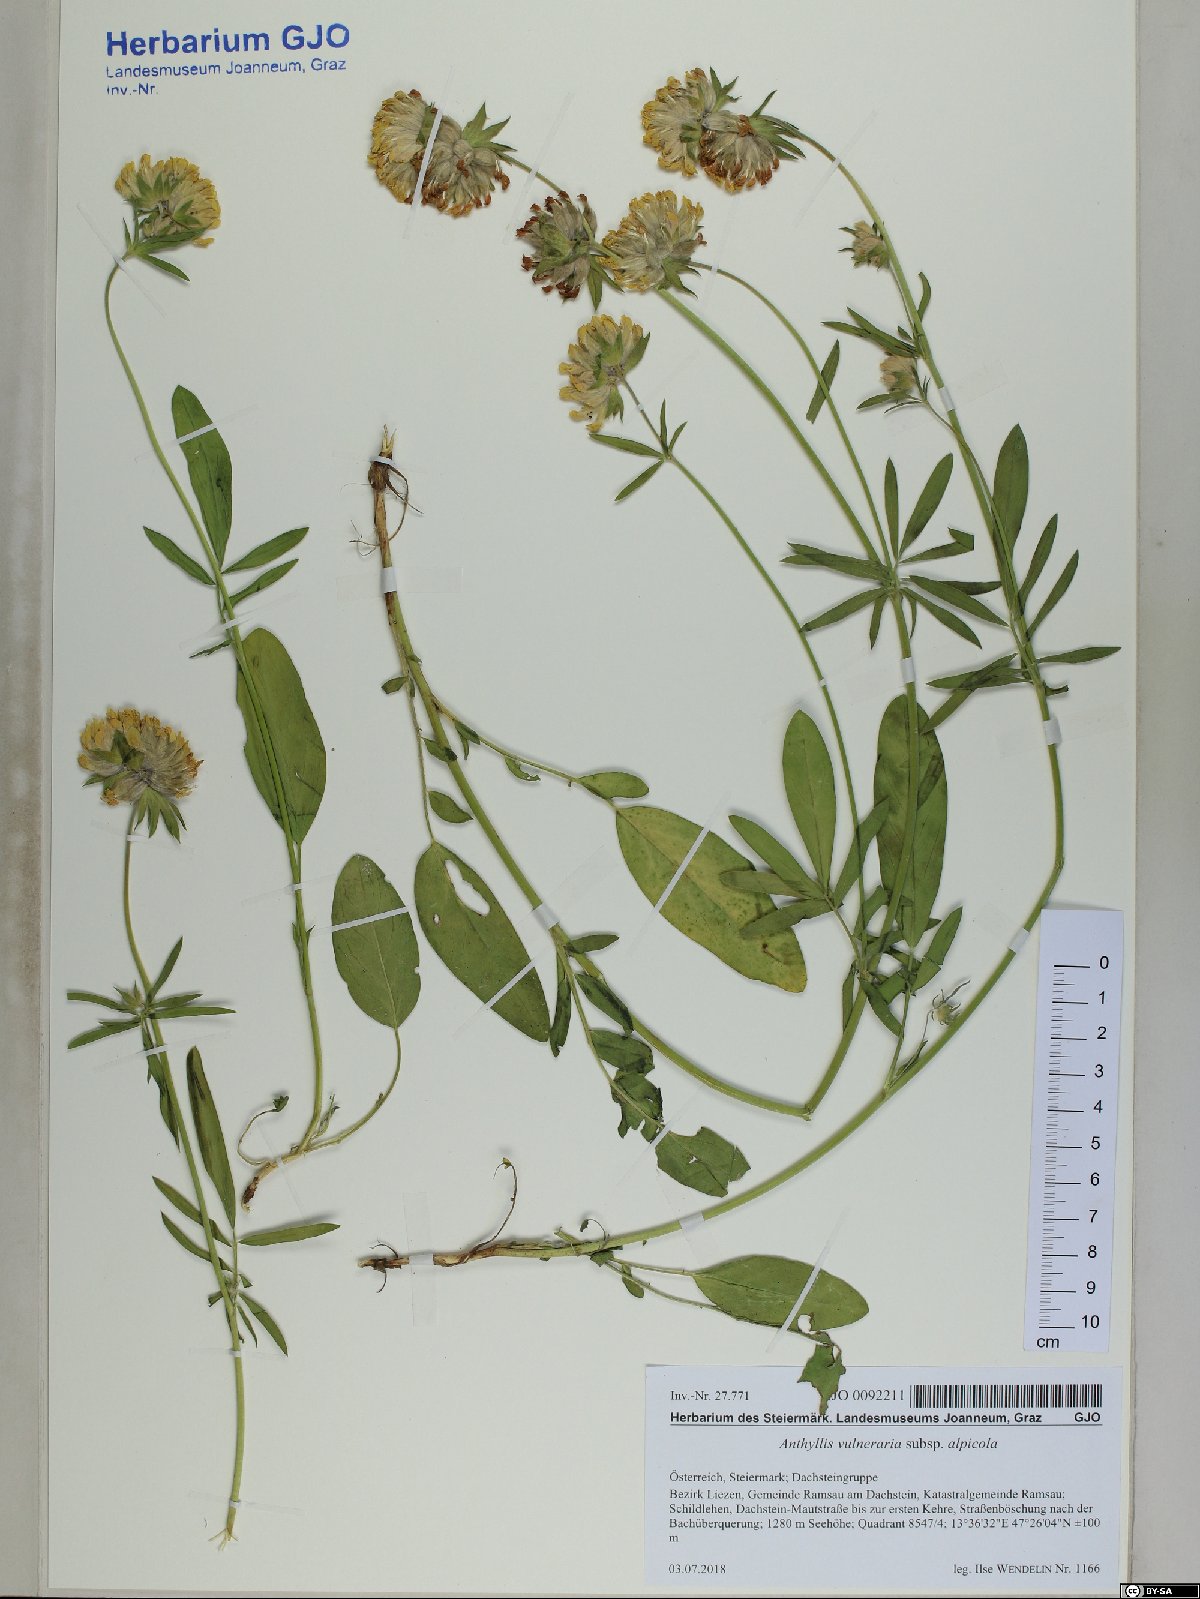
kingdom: Plantae
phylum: Tracheophyta
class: Magnoliopsida
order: Fabales
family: Fabaceae
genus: Anthyllis
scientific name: Anthyllis vulneraria
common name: Kidney vetch
